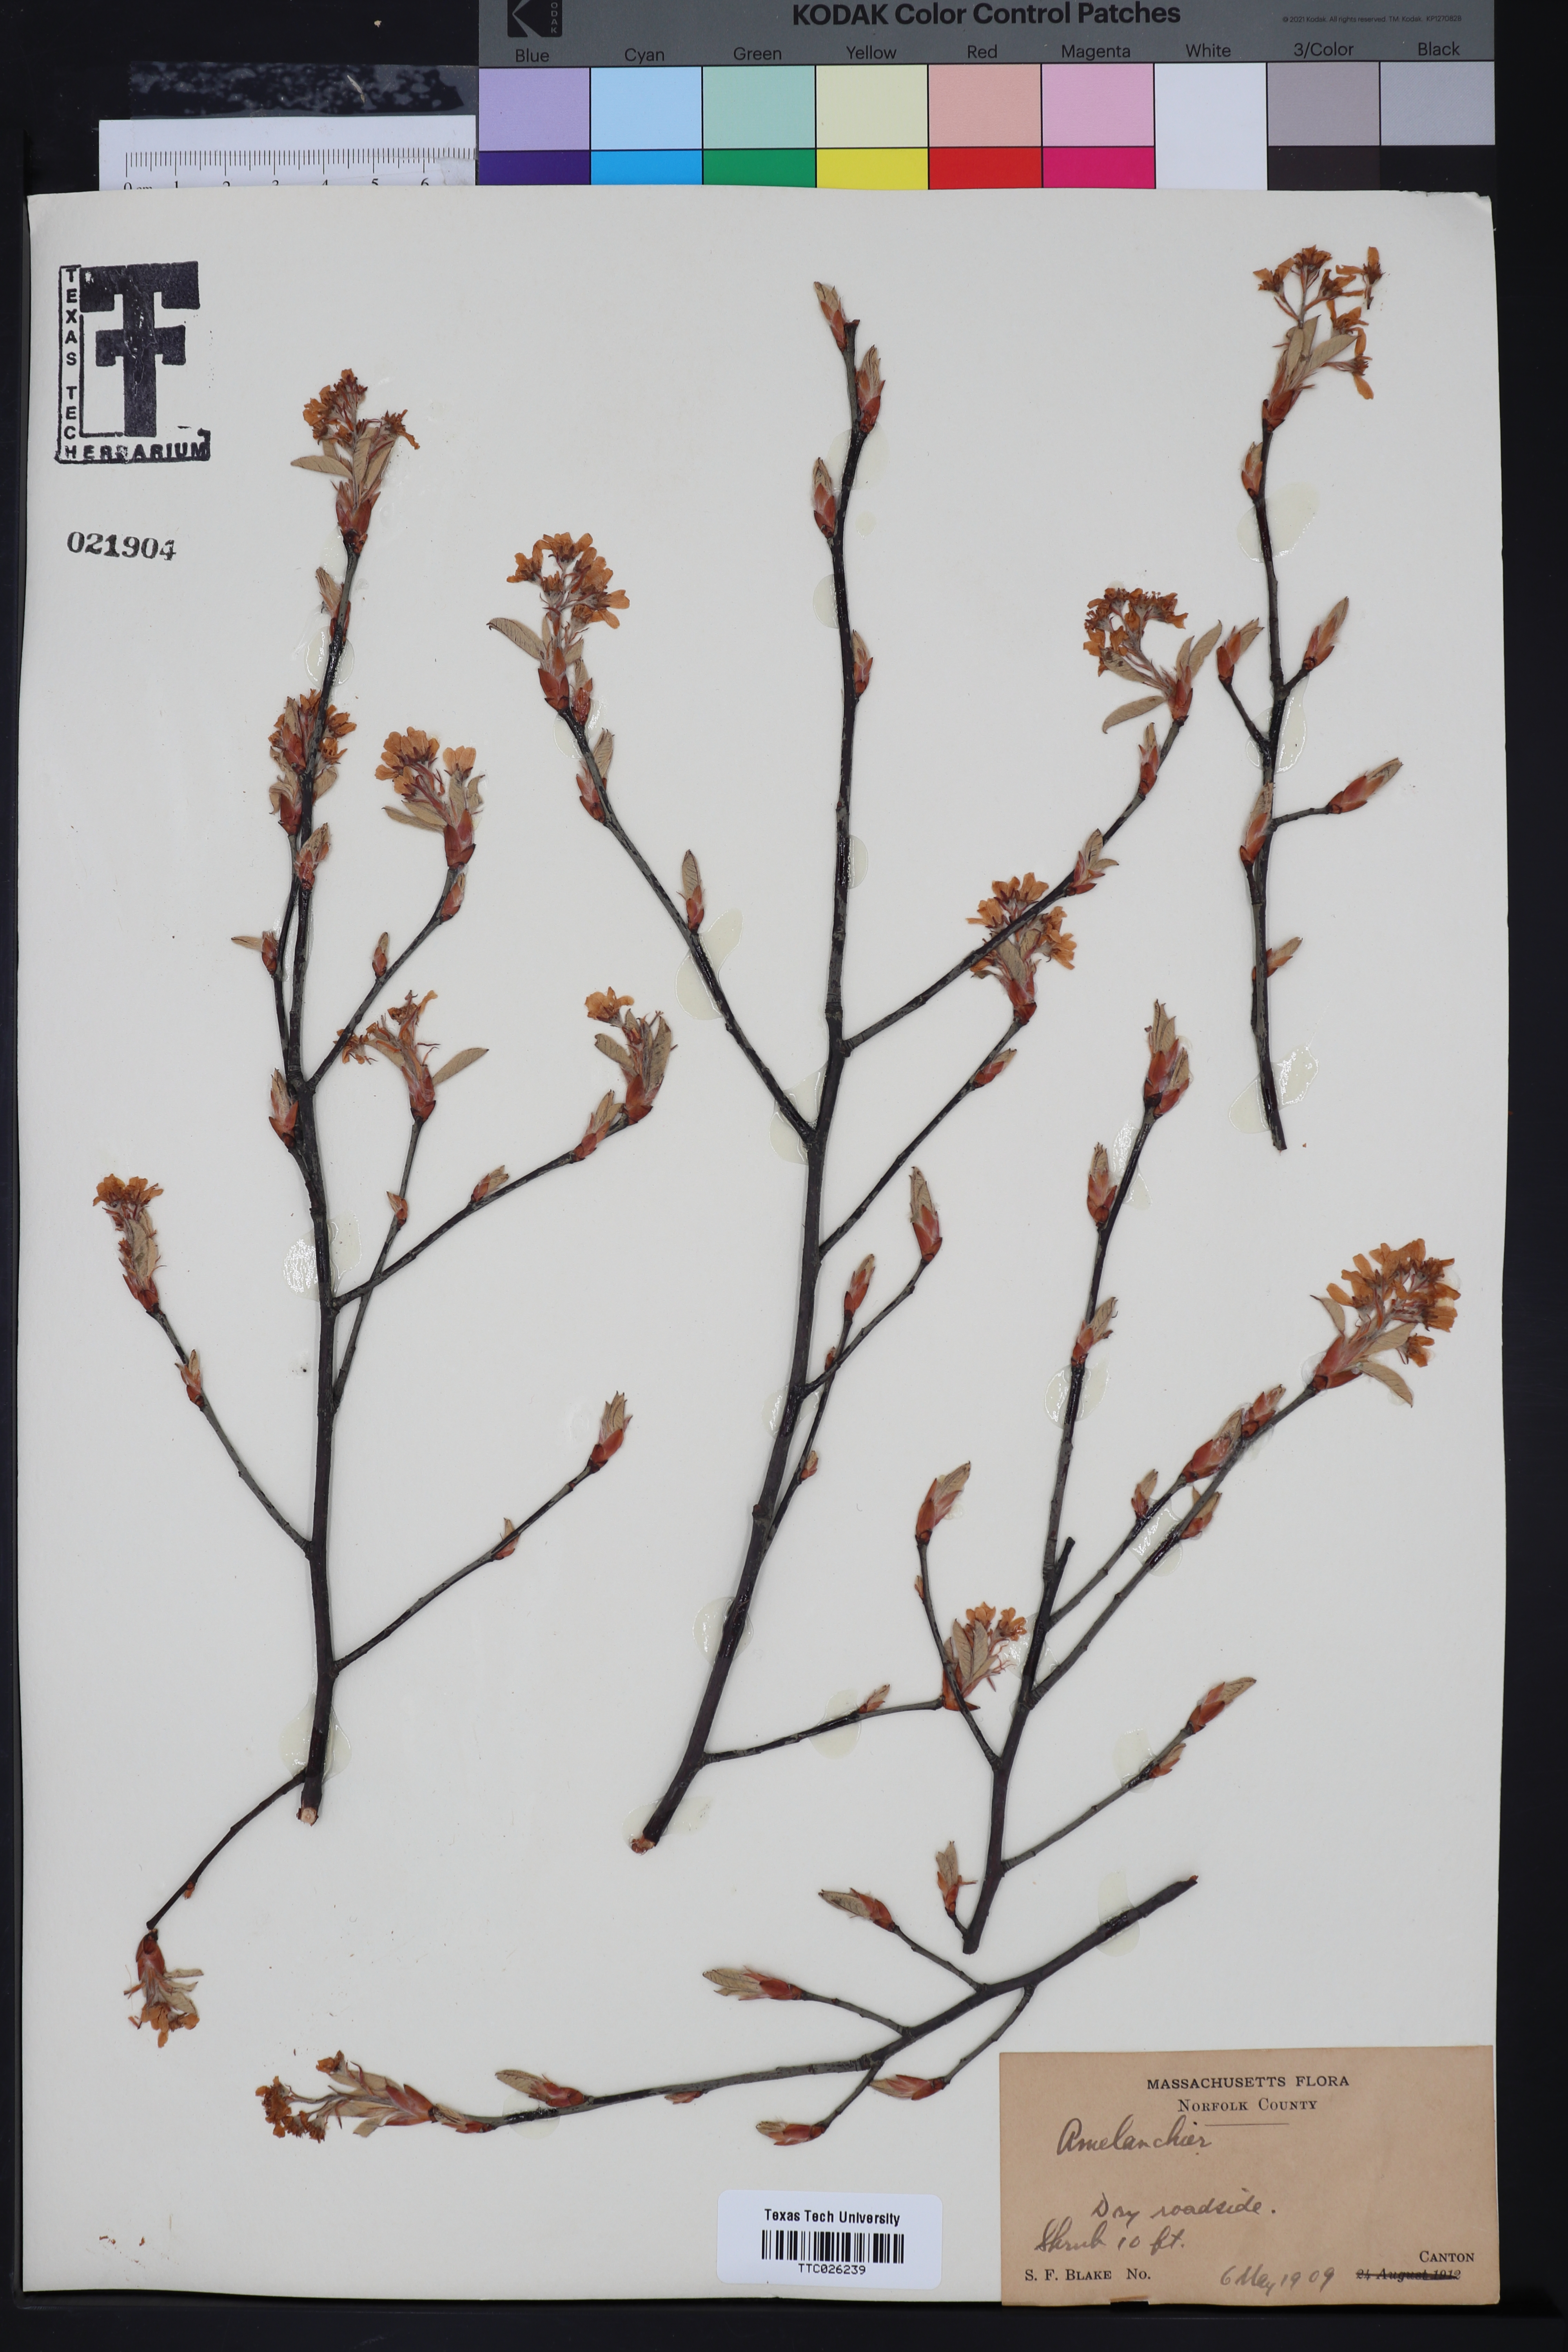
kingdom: Plantae
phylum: Tracheophyta
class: Magnoliopsida
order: Rosales
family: Rosaceae
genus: Amelanchier
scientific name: Amelanchier
